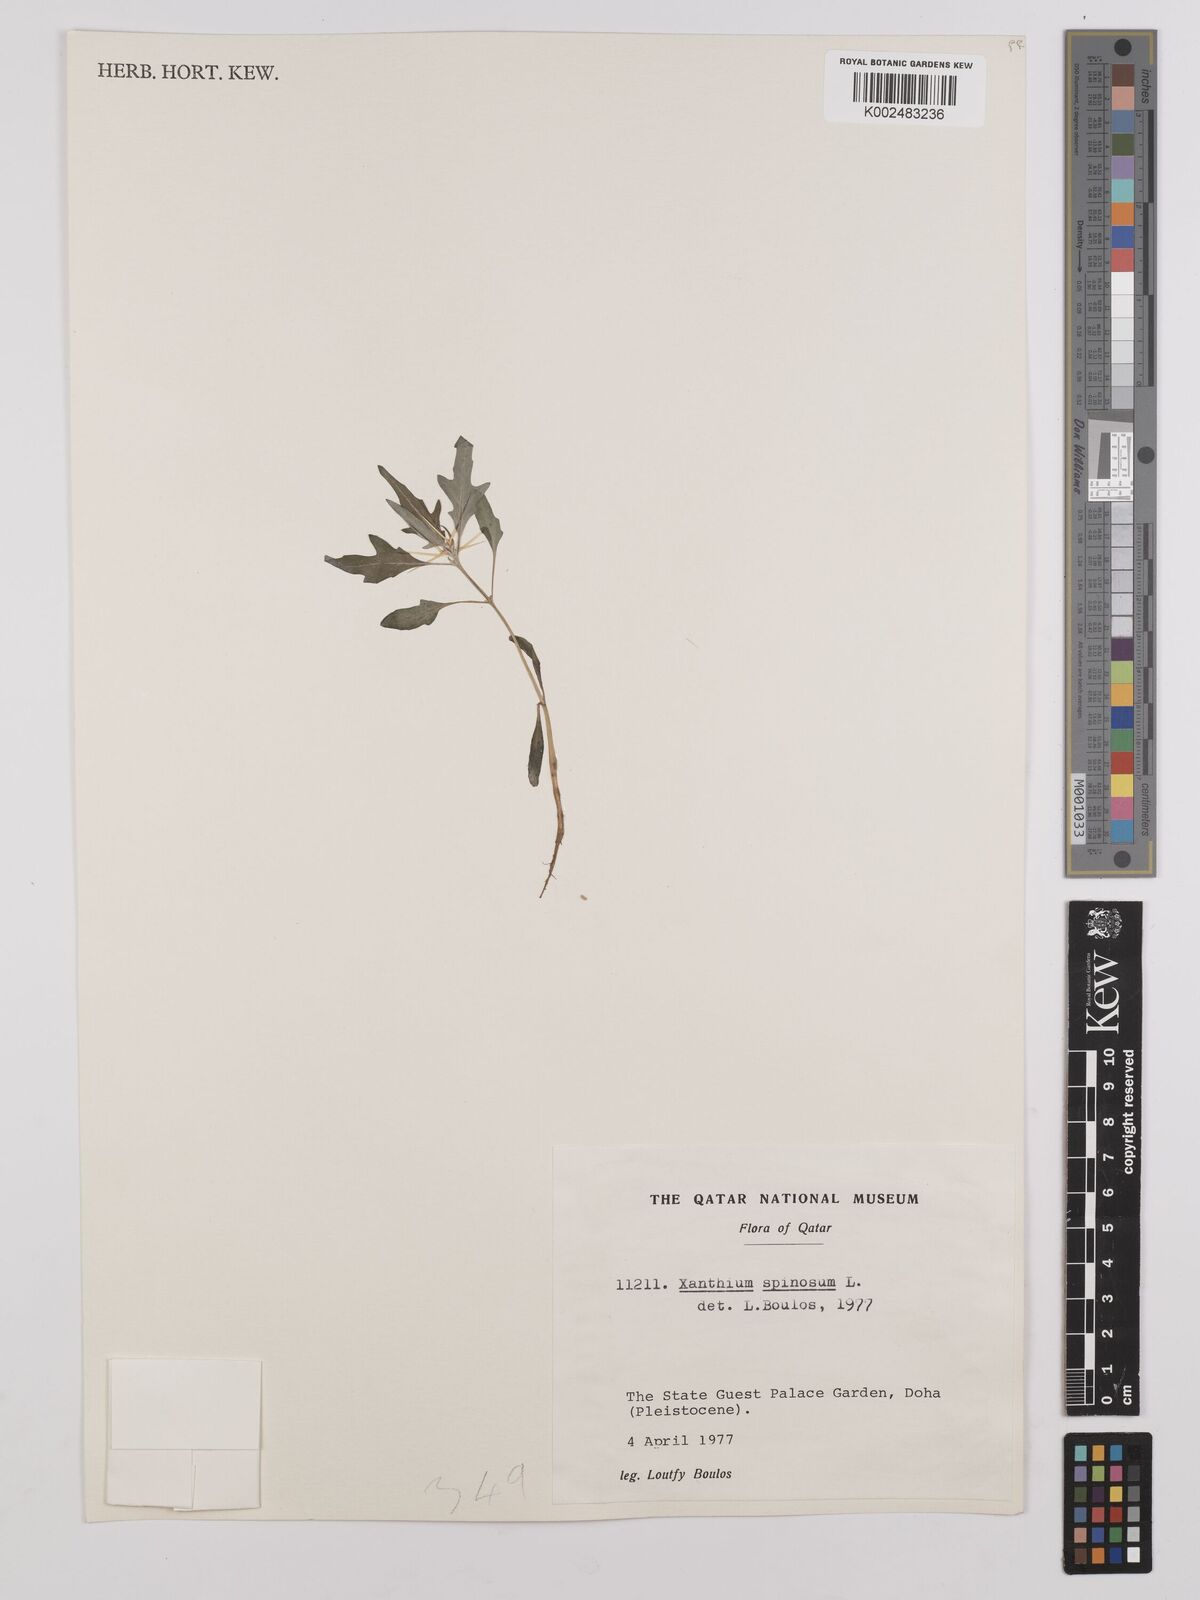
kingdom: Plantae
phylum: Tracheophyta
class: Magnoliopsida
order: Asterales
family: Asteraceae
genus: Xanthium
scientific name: Xanthium spinosum
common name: Spiny cocklebur
